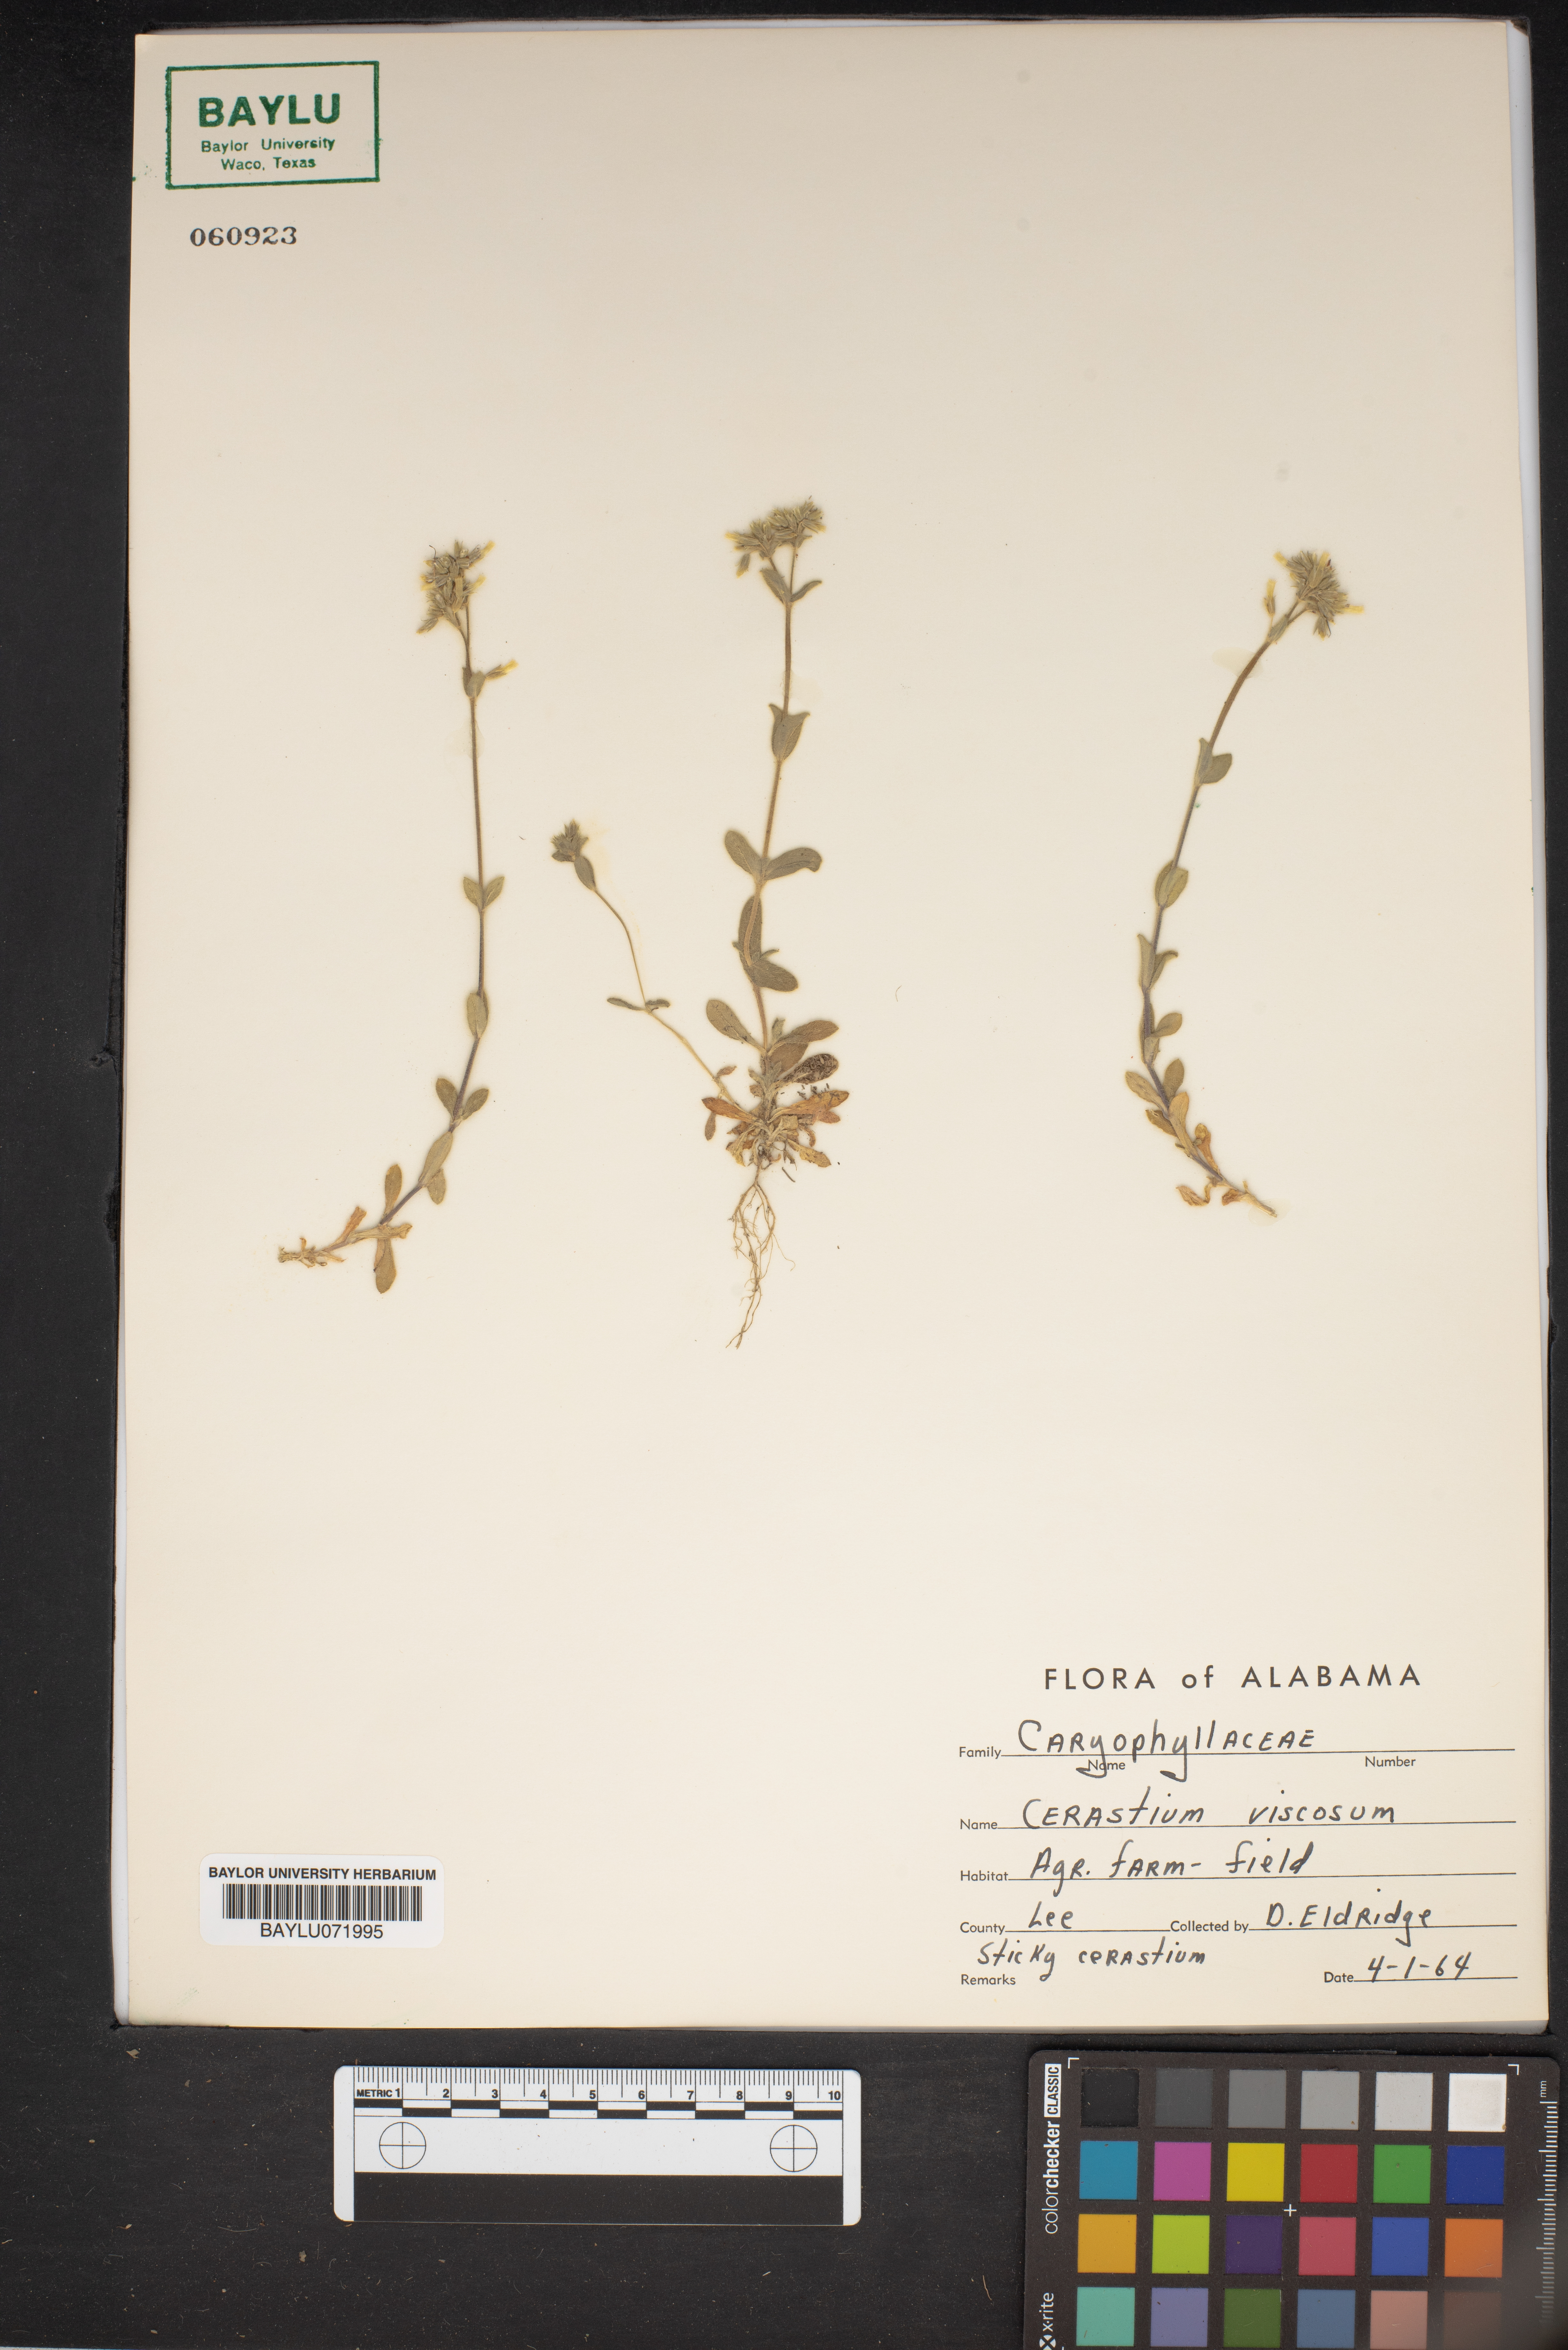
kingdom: Plantae
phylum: Tracheophyta
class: Magnoliopsida
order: Caryophyllales
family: Caryophyllaceae
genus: Cerastium
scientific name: Cerastium holosteoides
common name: Big chickweed
